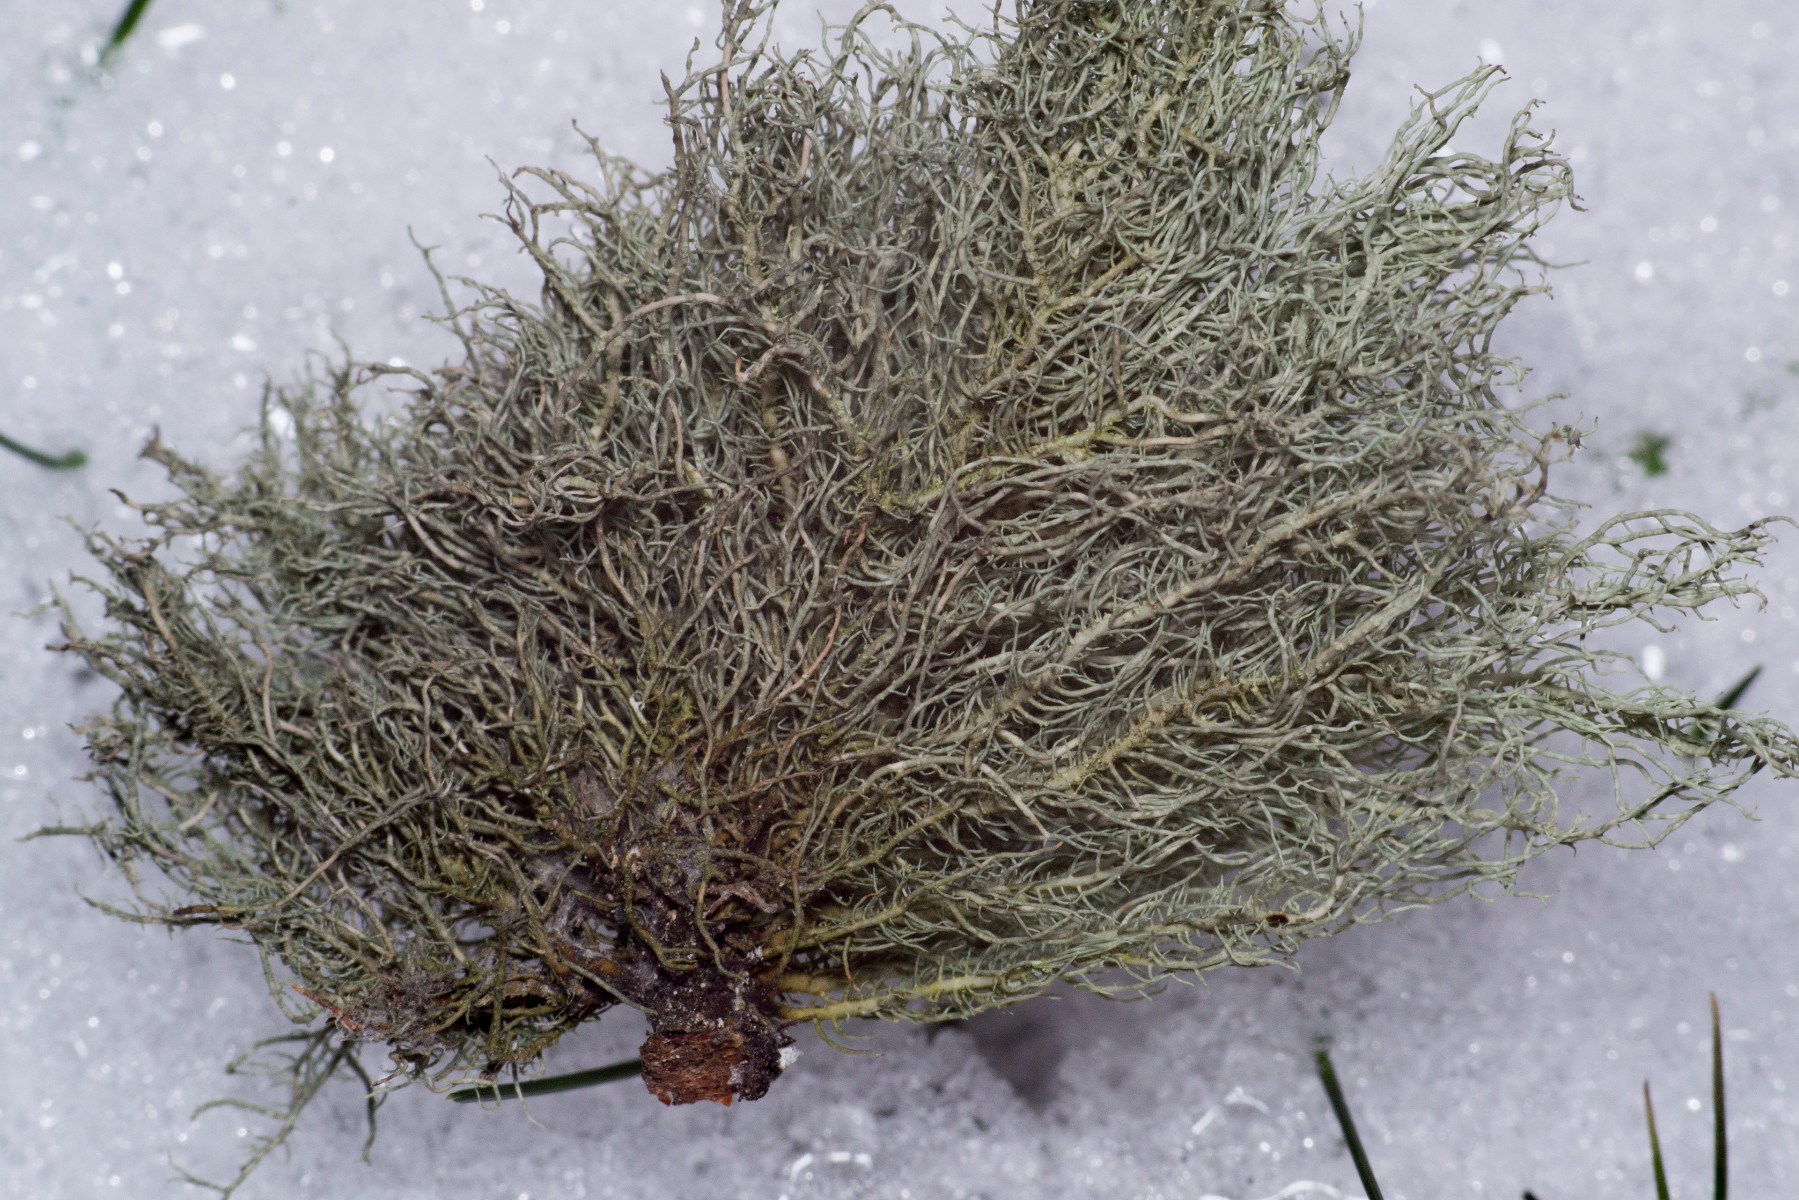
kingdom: Fungi
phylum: Ascomycota
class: Lecanoromycetes
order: Lecanorales
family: Parmeliaceae
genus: Usnea
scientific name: Usnea wasmuthii
